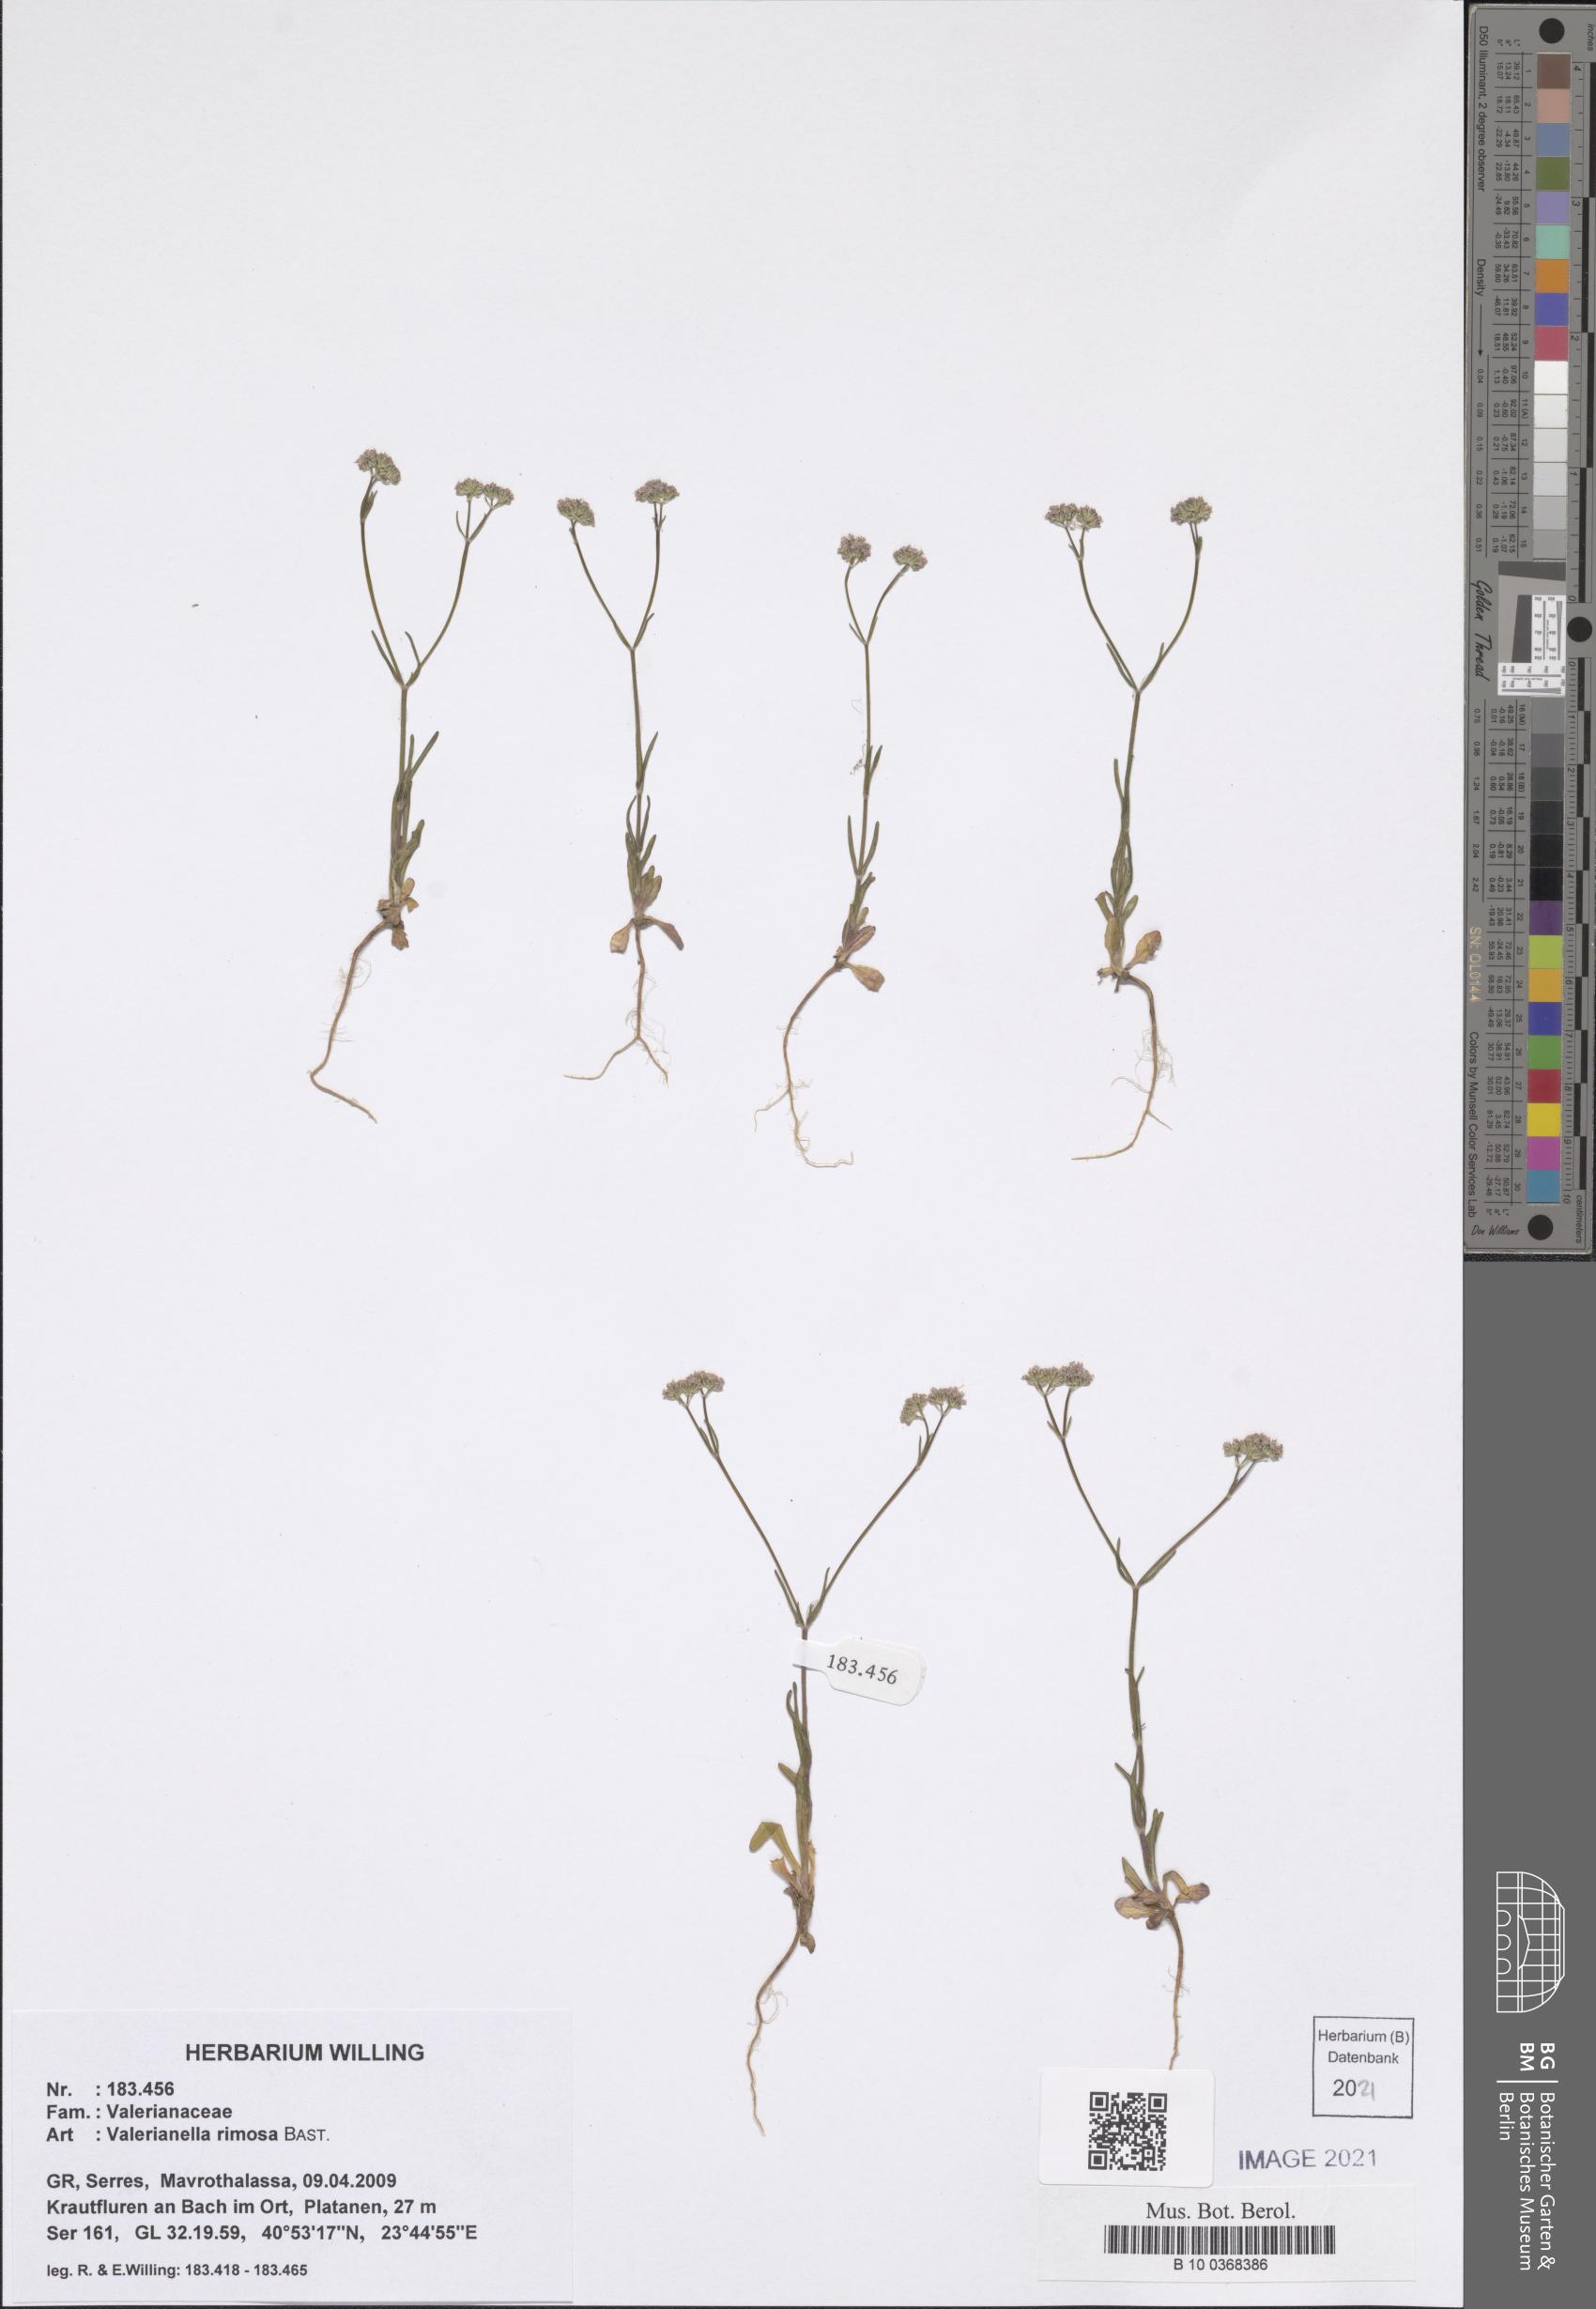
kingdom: Plantae
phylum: Tracheophyta
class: Magnoliopsida
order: Dipsacales
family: Caprifoliaceae
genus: Valerianella
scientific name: Valerianella rimosa
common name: Broad-fruited cornsalad
